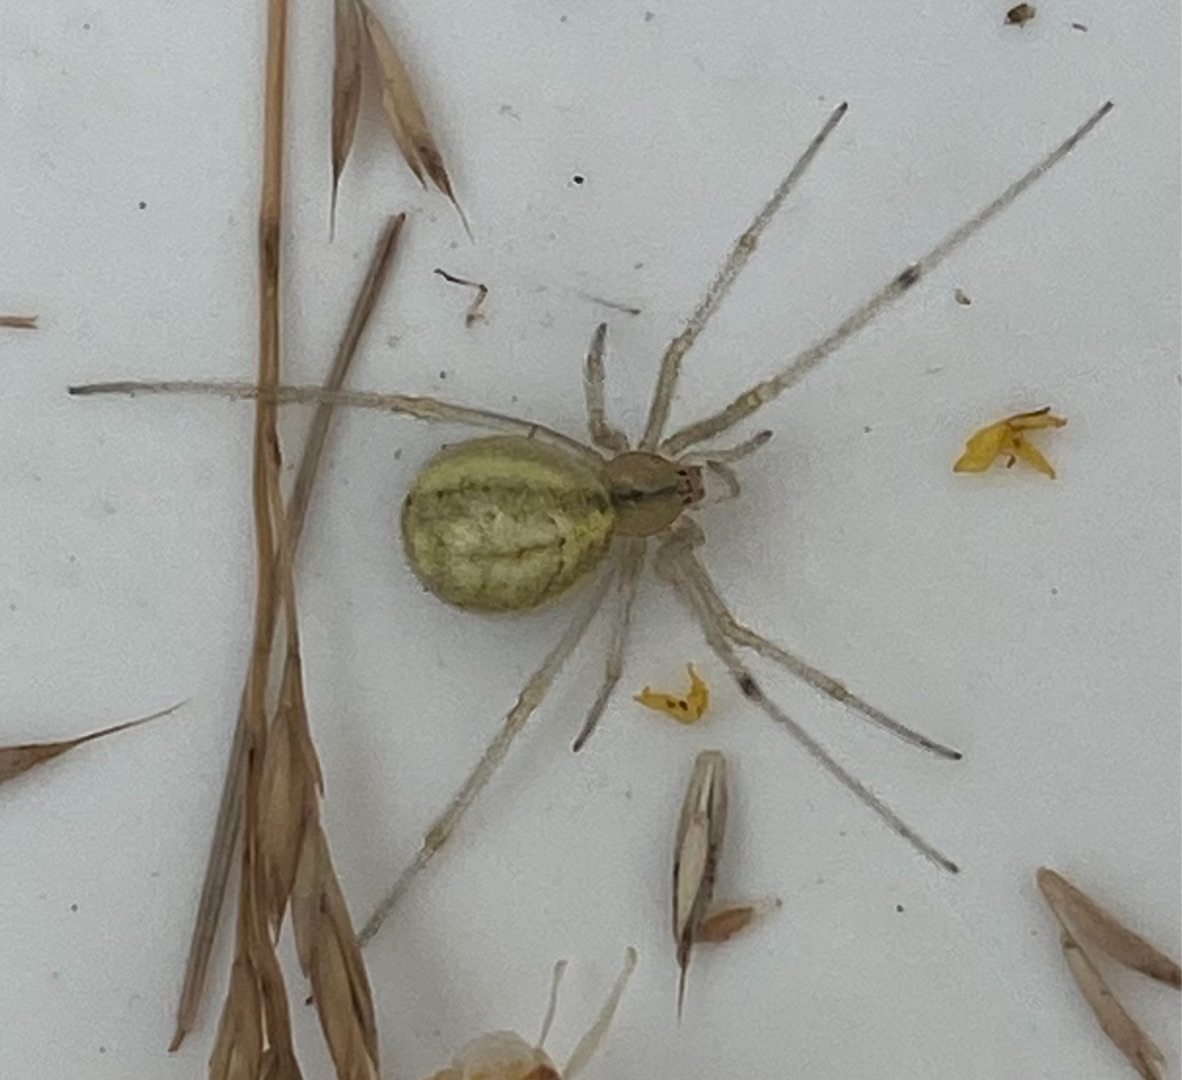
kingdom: Animalia
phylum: Arthropoda
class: Arachnida
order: Araneae
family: Theridiidae
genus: Enoplognatha
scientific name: Enoplognatha
